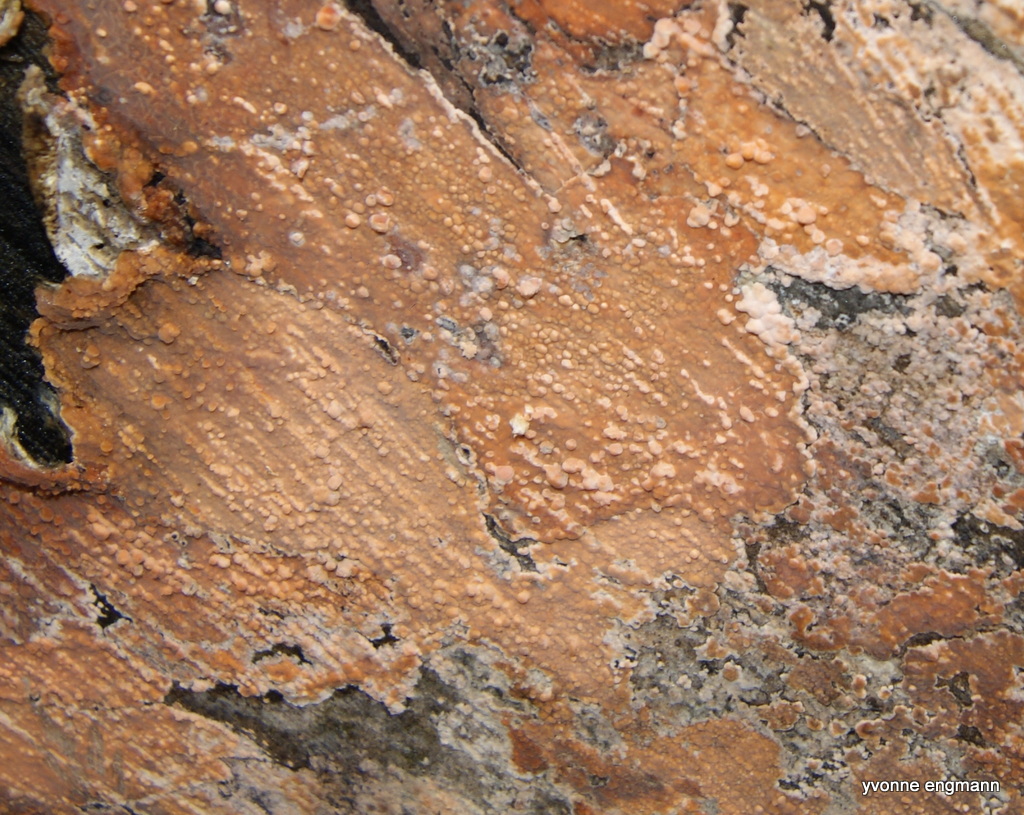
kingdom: Fungi
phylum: Basidiomycota
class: Agaricomycetes
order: Russulales
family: Peniophoraceae
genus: Peniophora
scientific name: Peniophora incarnata
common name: laksefarvet voksskind
